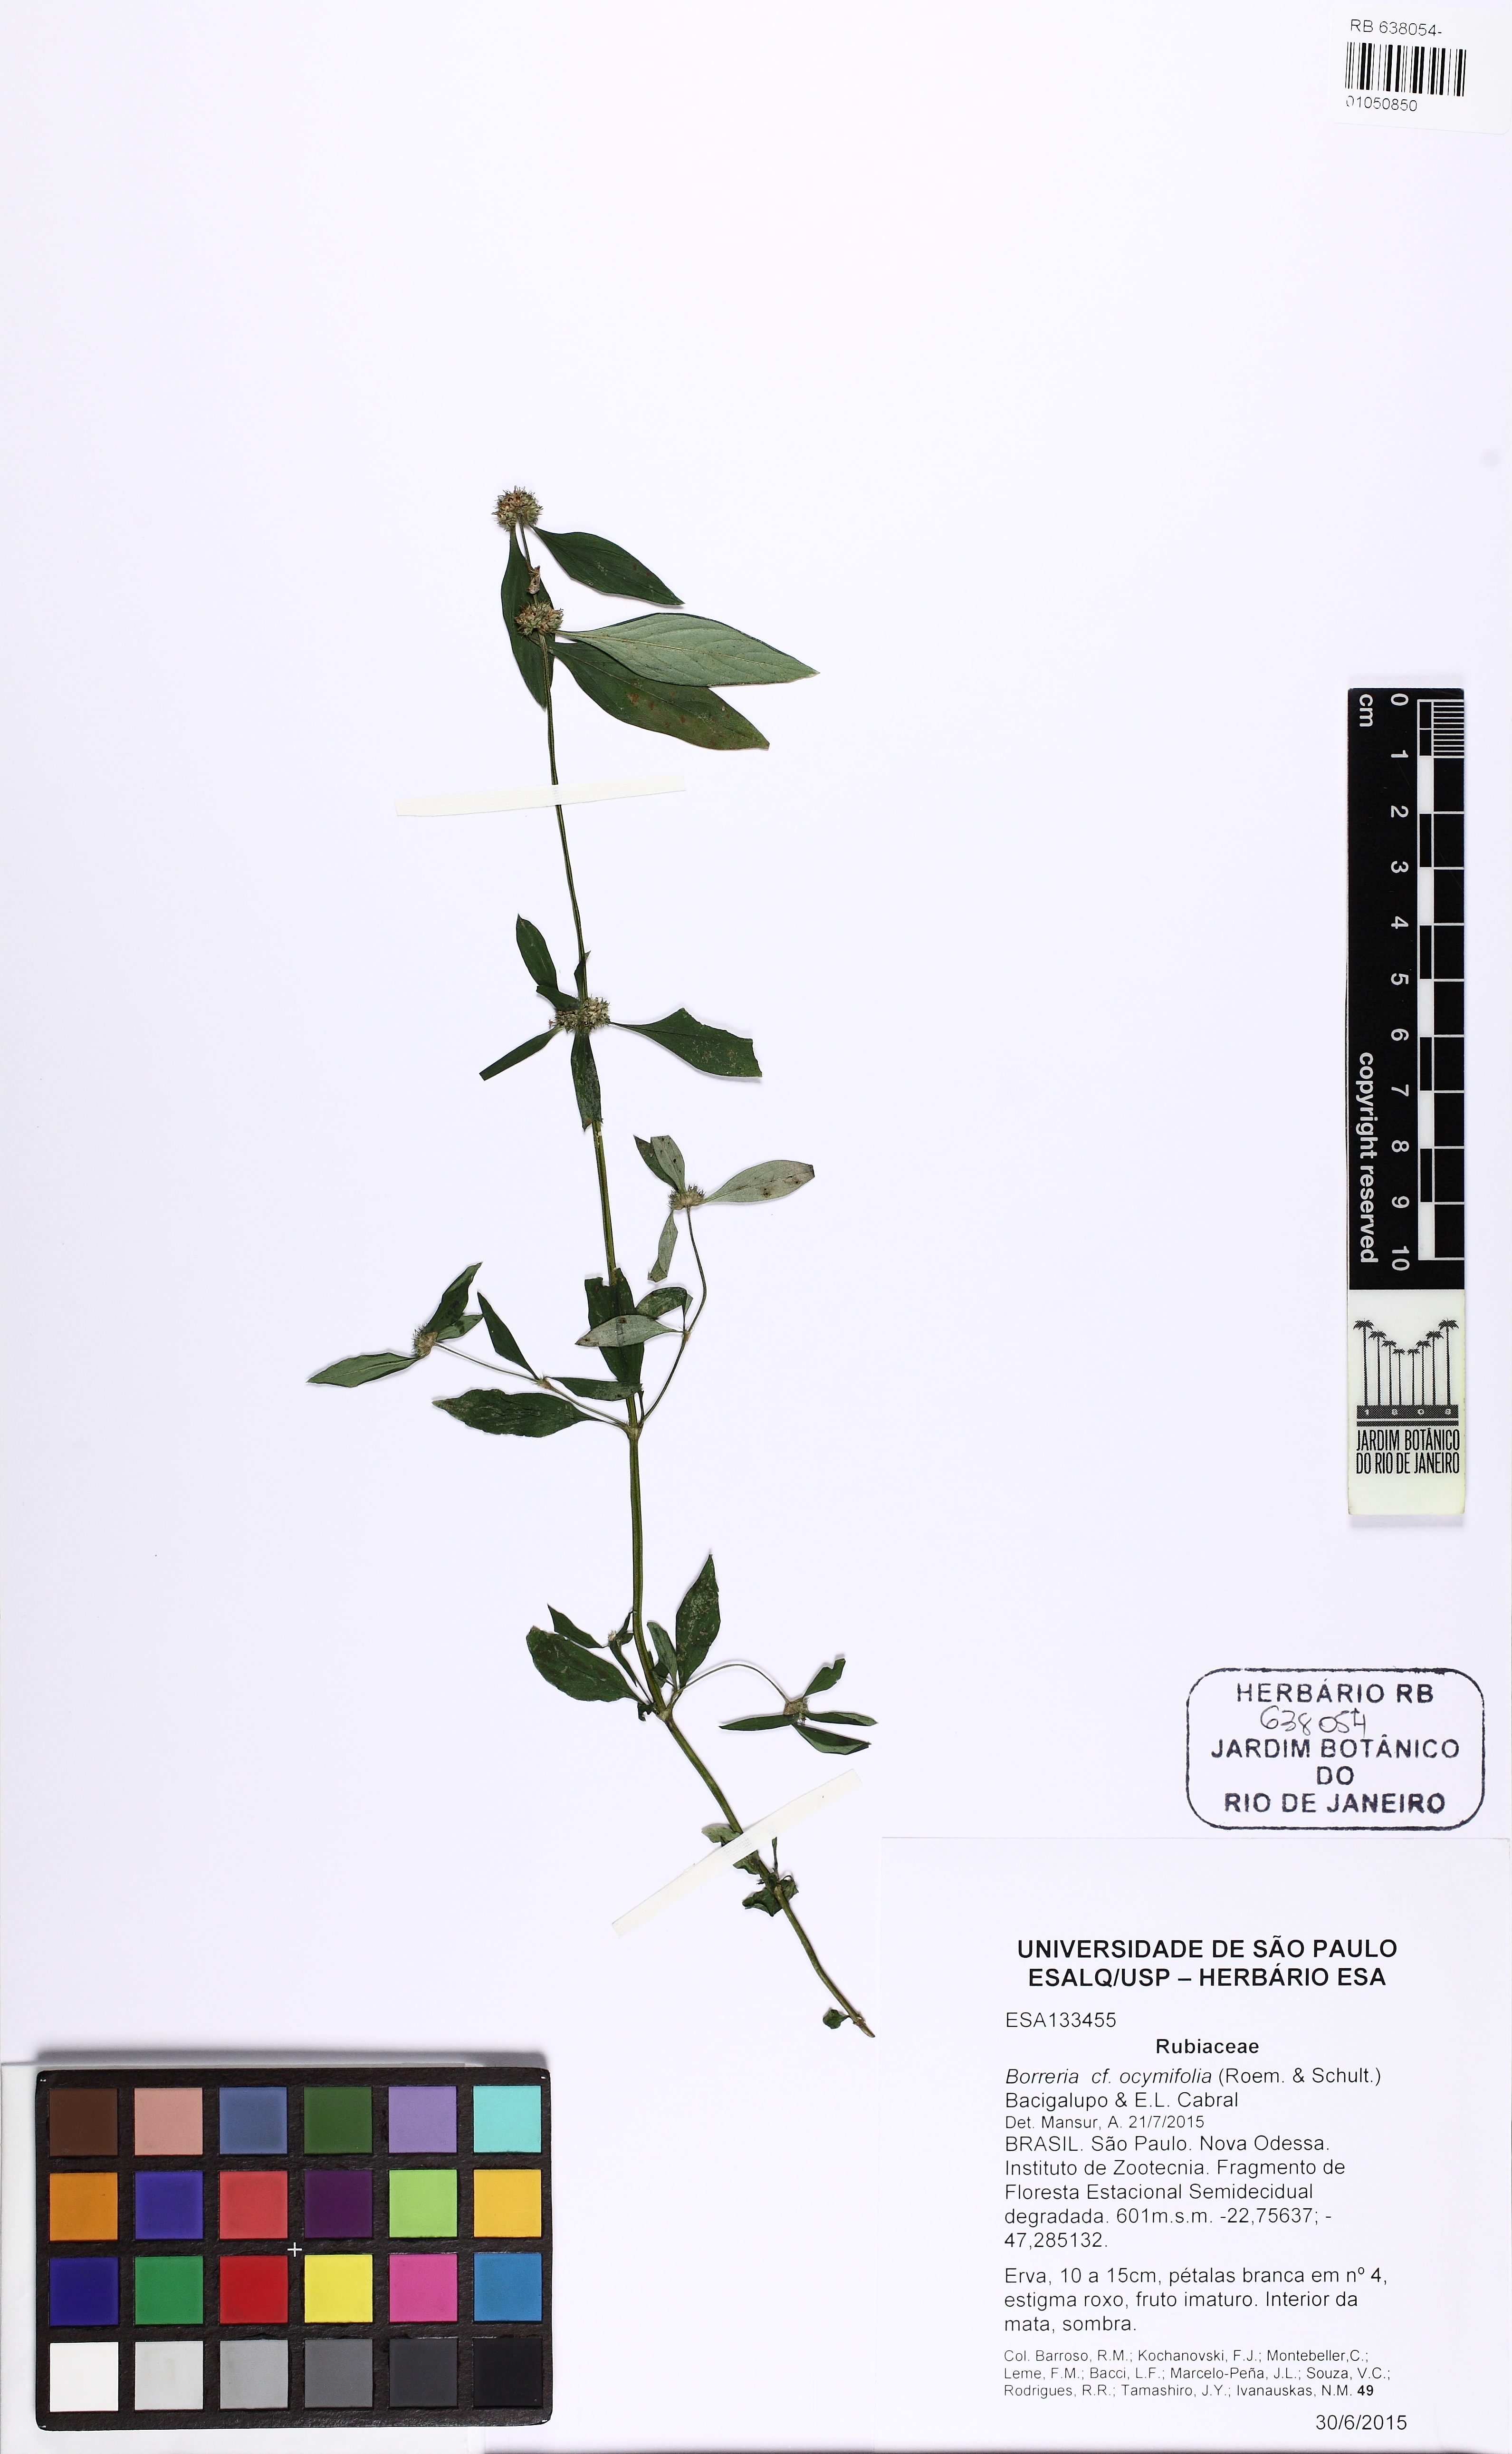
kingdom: Plantae
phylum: Tracheophyta
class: Magnoliopsida
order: Gentianales
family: Rubiaceae
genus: Spermacoce
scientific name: Spermacoce ocymifolia
